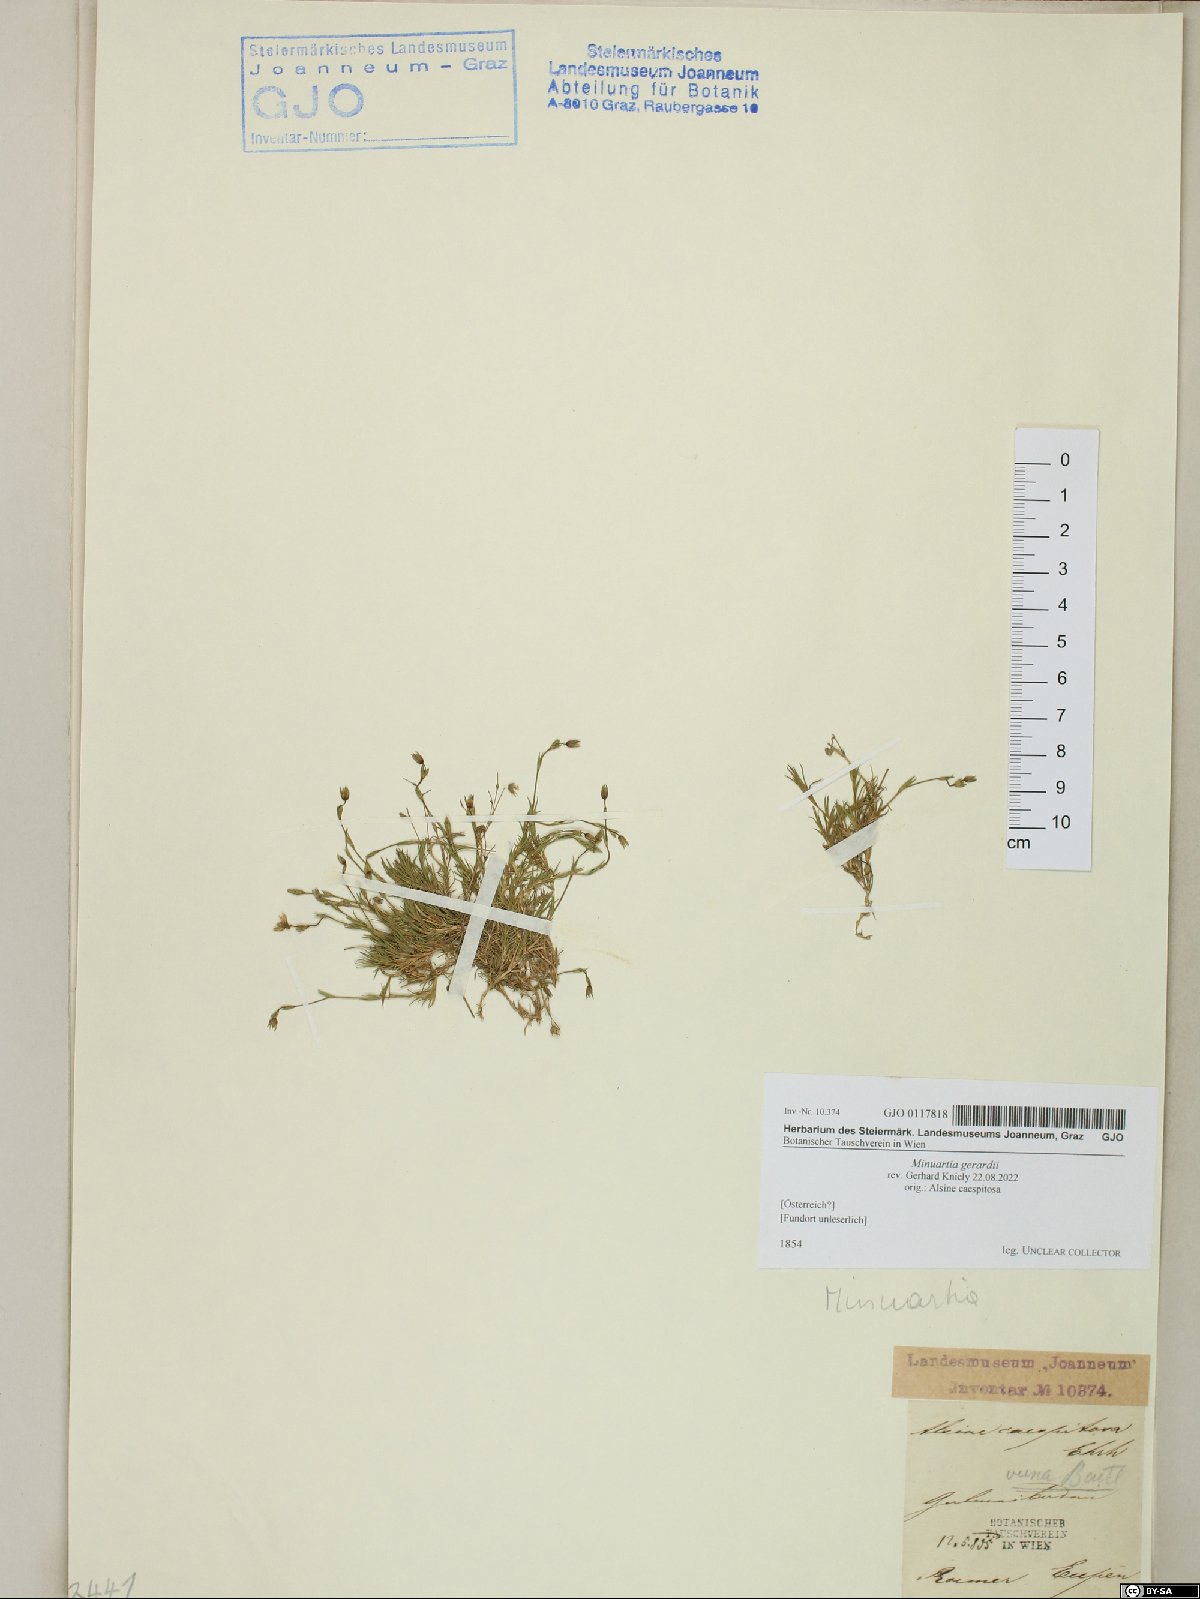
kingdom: Plantae
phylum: Tracheophyta
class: Magnoliopsida
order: Caryophyllales
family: Caryophyllaceae
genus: Sabulina
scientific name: Sabulina verna
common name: Spring sandwort
